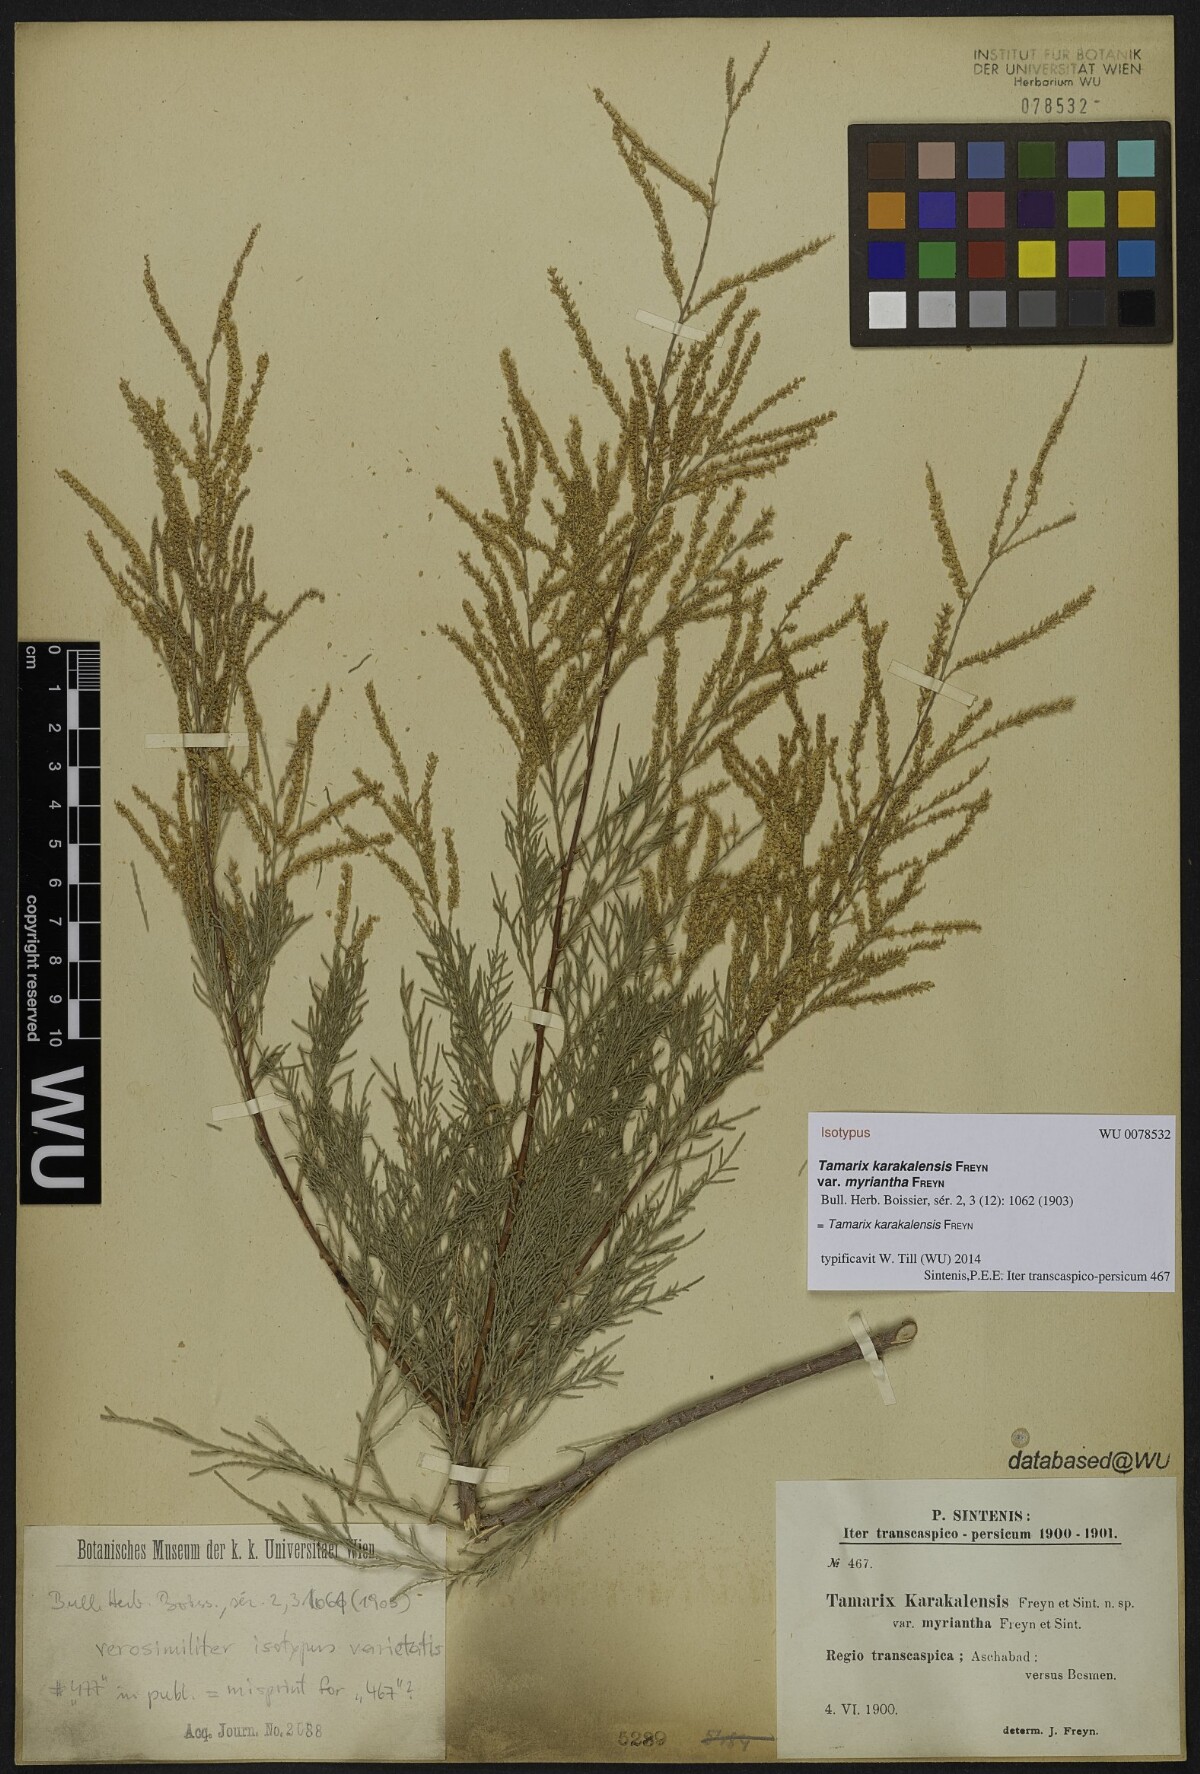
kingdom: Plantae
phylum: Tracheophyta
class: Magnoliopsida
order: Caryophyllales
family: Tamaricaceae
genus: Tamarix
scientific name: Tamarix arceuthoides
